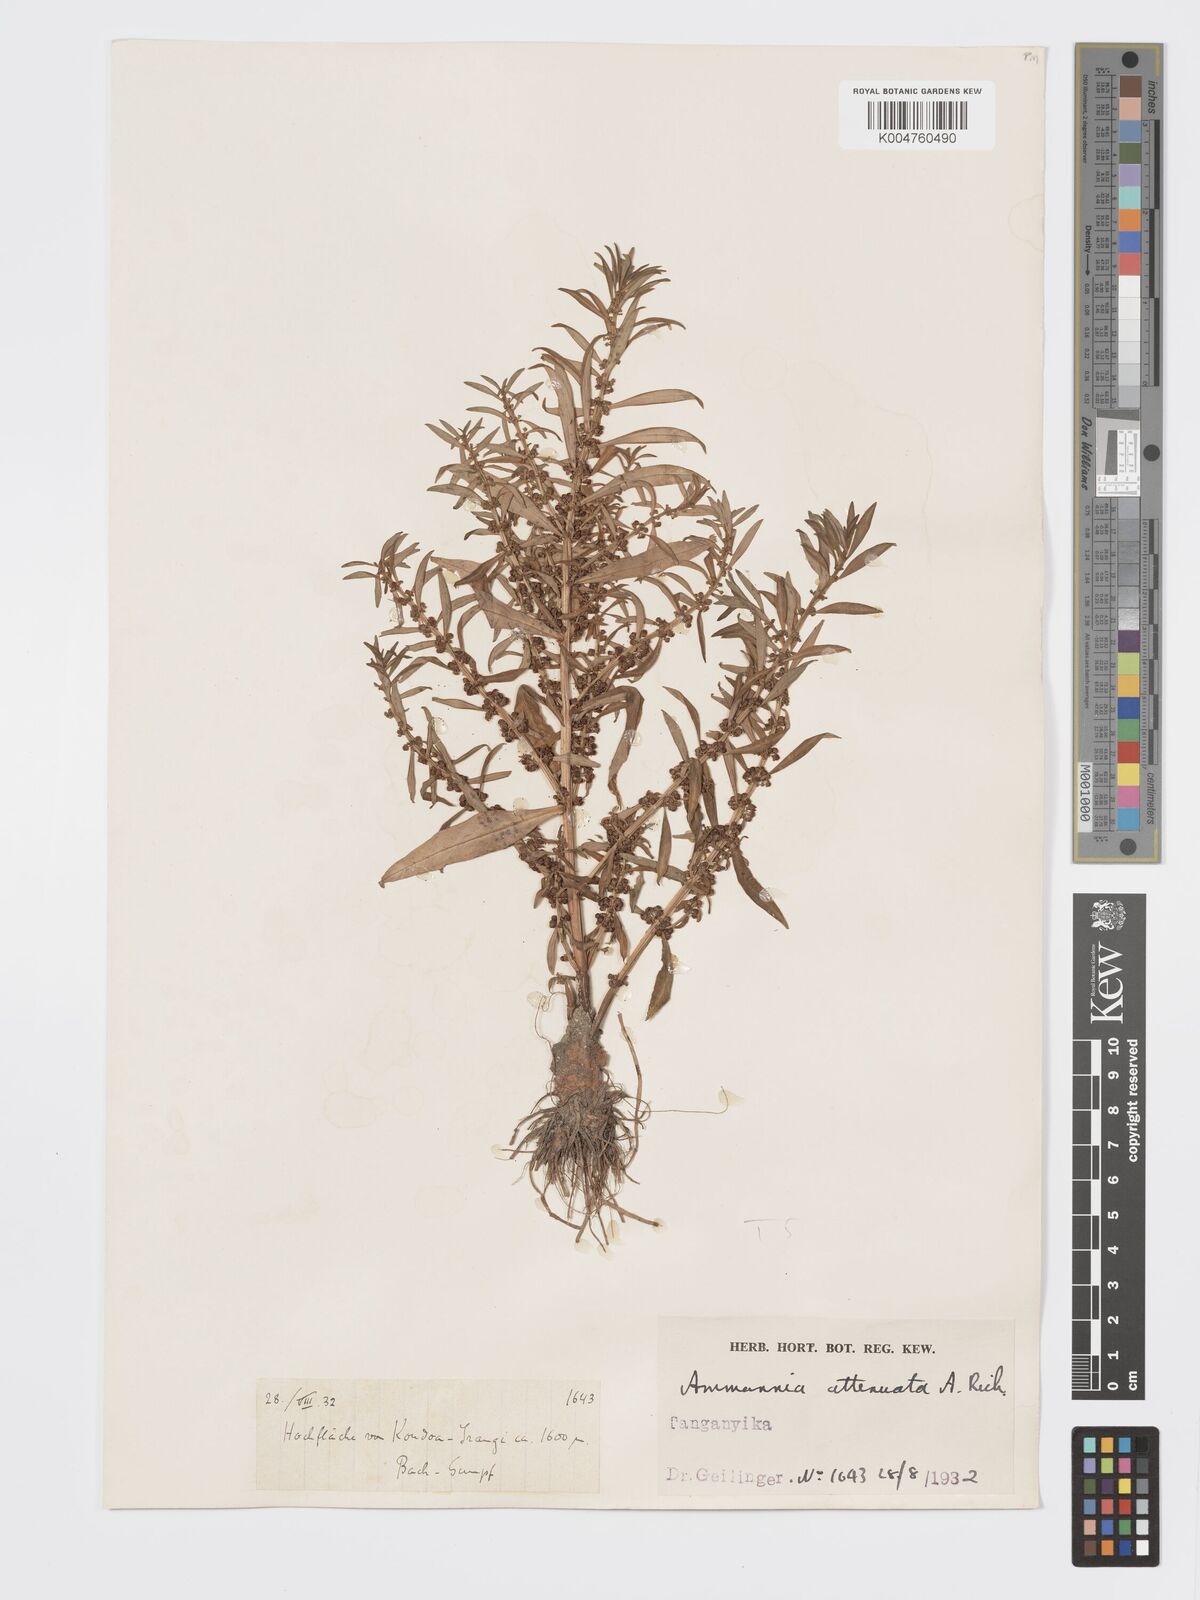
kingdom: Plantae
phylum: Tracheophyta
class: Magnoliopsida
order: Myrtales
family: Lythraceae
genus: Ammannia
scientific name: Ammannia
